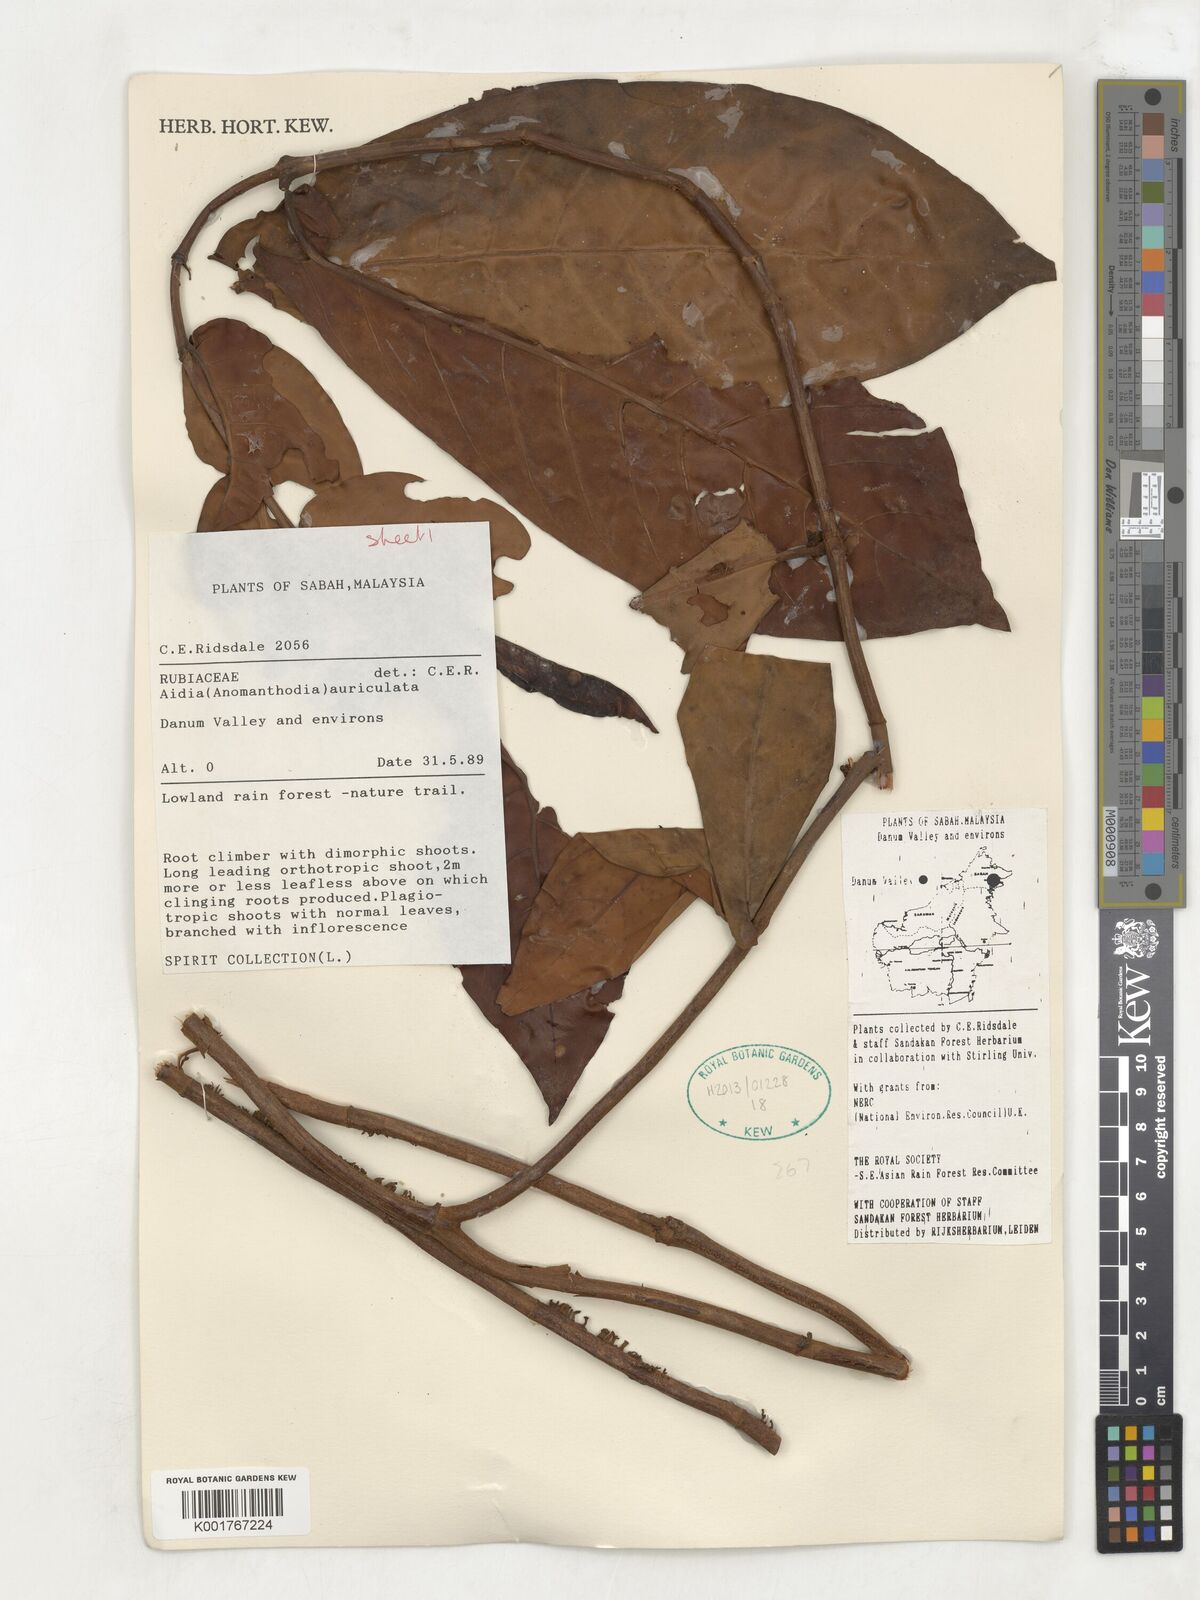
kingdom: Plantae
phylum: Tracheophyta
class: Magnoliopsida
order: Gentianales
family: Rubiaceae
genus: Aidia
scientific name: Aidia auriculata
